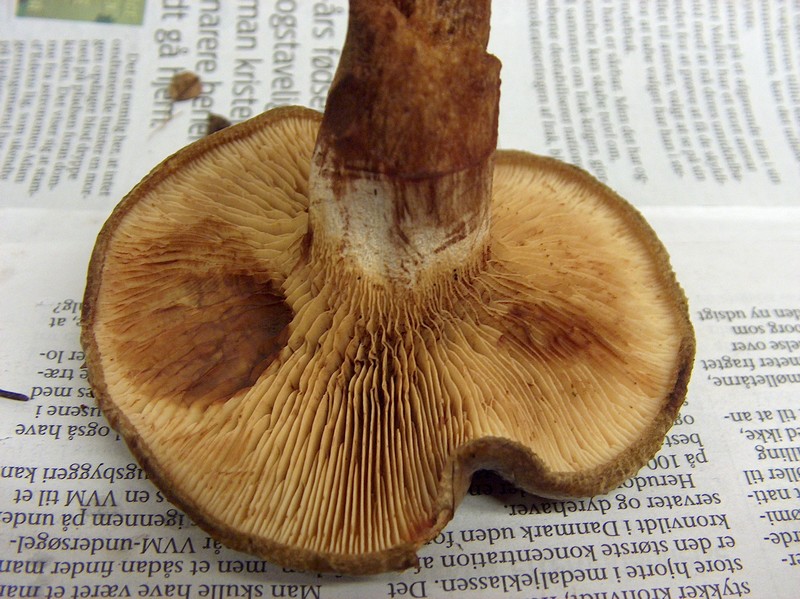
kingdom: Fungi
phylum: Basidiomycota
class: Agaricomycetes
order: Boletales
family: Paxillaceae
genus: Paxillus
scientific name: Paxillus involutus
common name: almindelig netbladhat
